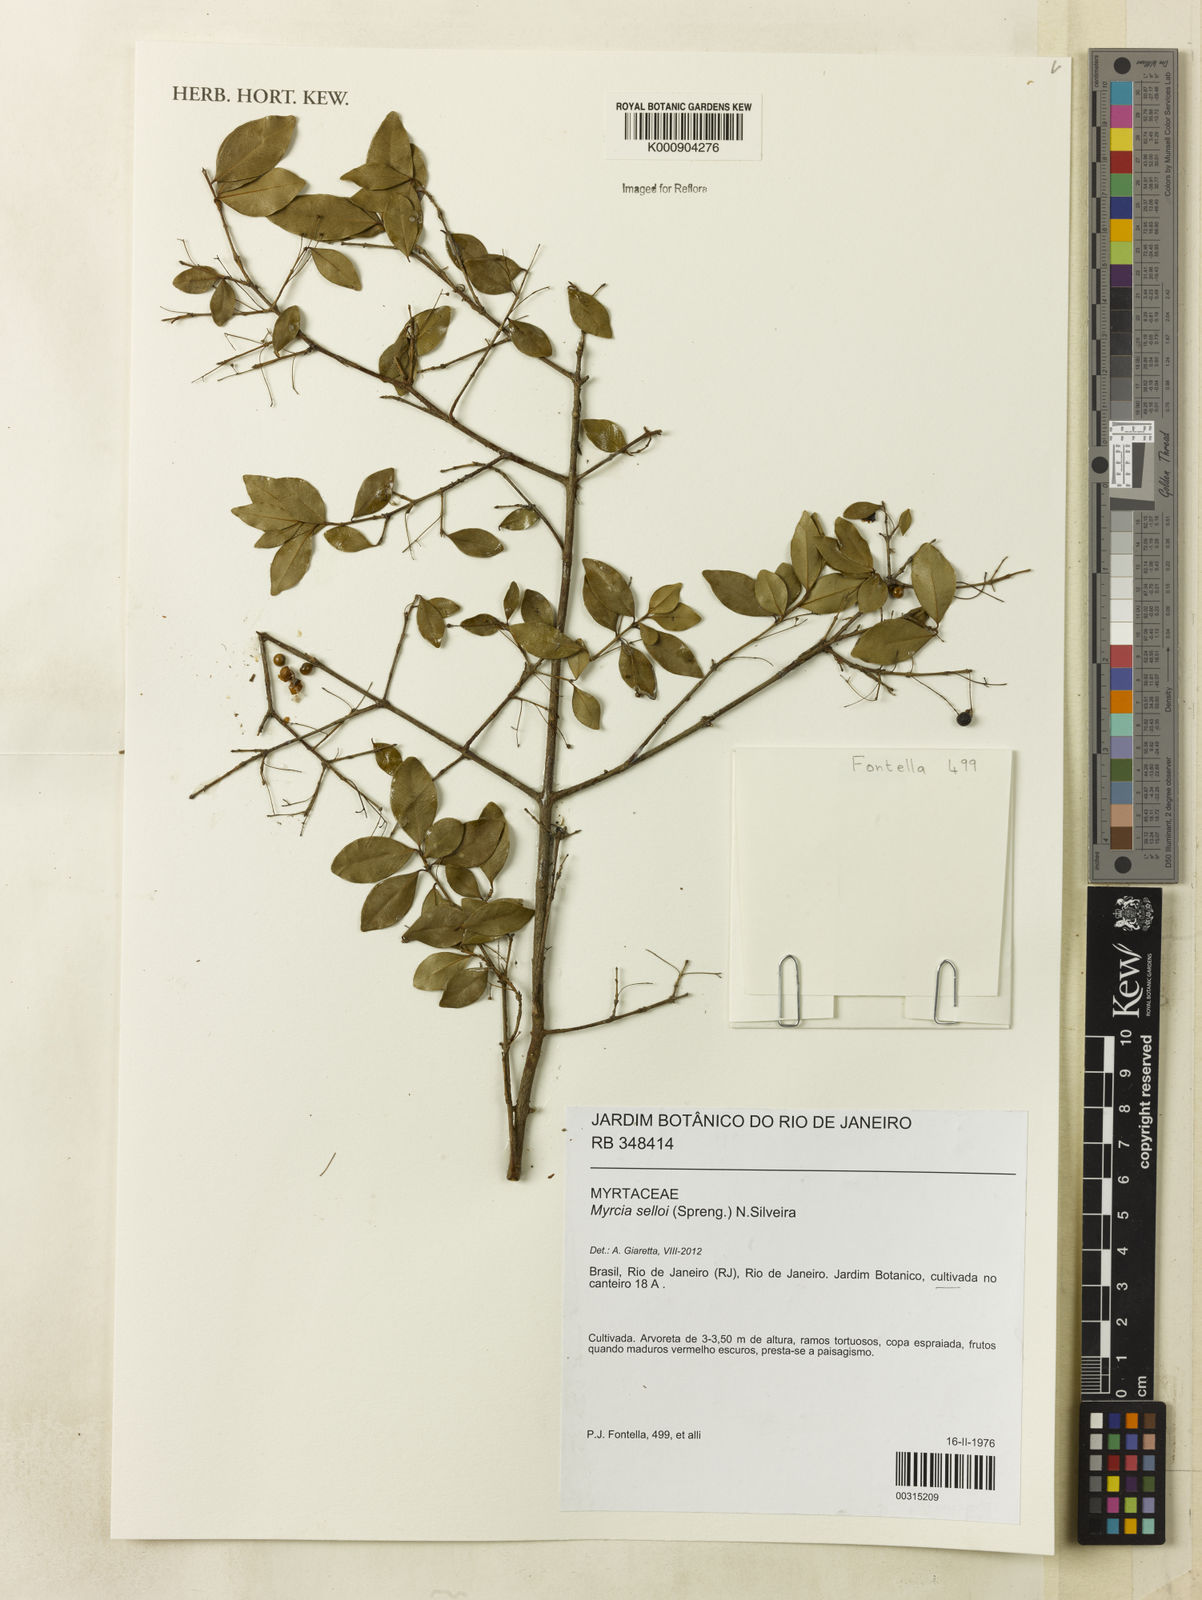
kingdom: Plantae
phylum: Tracheophyta
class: Magnoliopsida
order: Myrtales
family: Myrtaceae
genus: Myrcia
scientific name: Myrcia selloi
